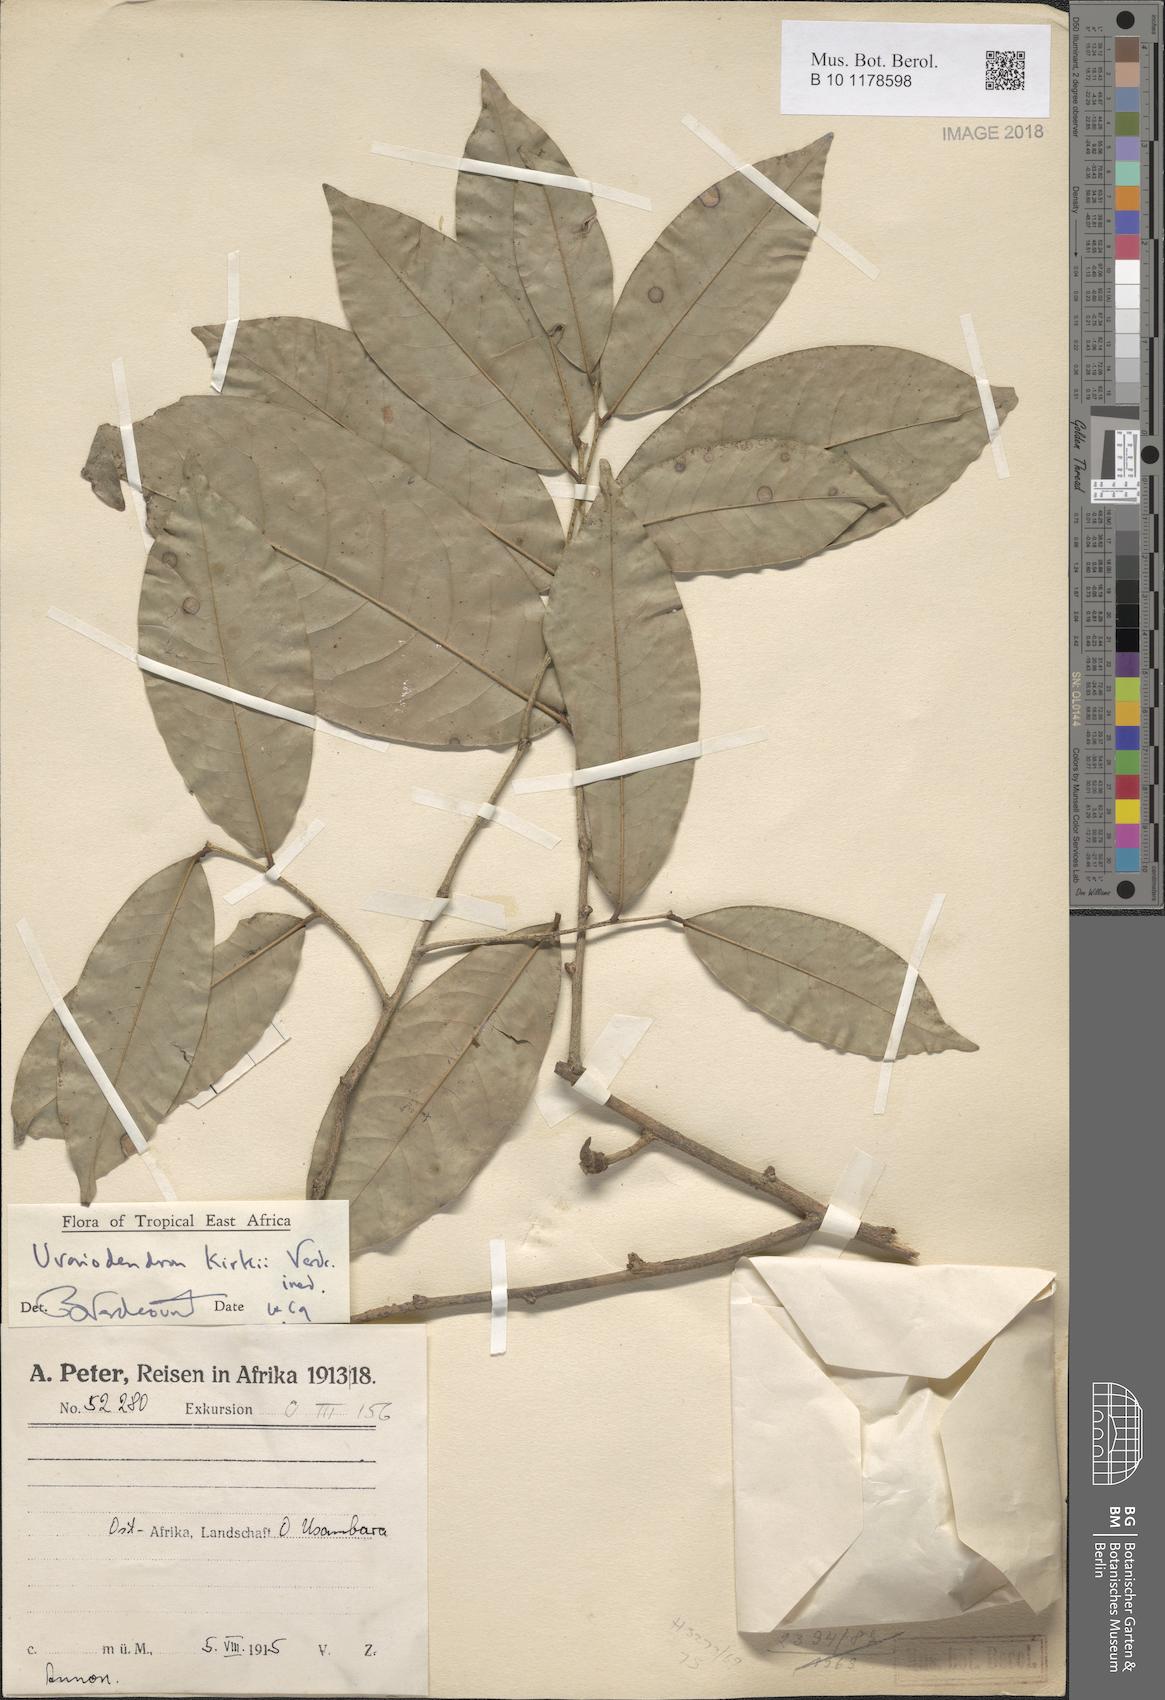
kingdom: Plantae
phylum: Tracheophyta
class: Magnoliopsida
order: Magnoliales
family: Annonaceae
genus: Uvariodendron
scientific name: Uvariodendron kirkii
